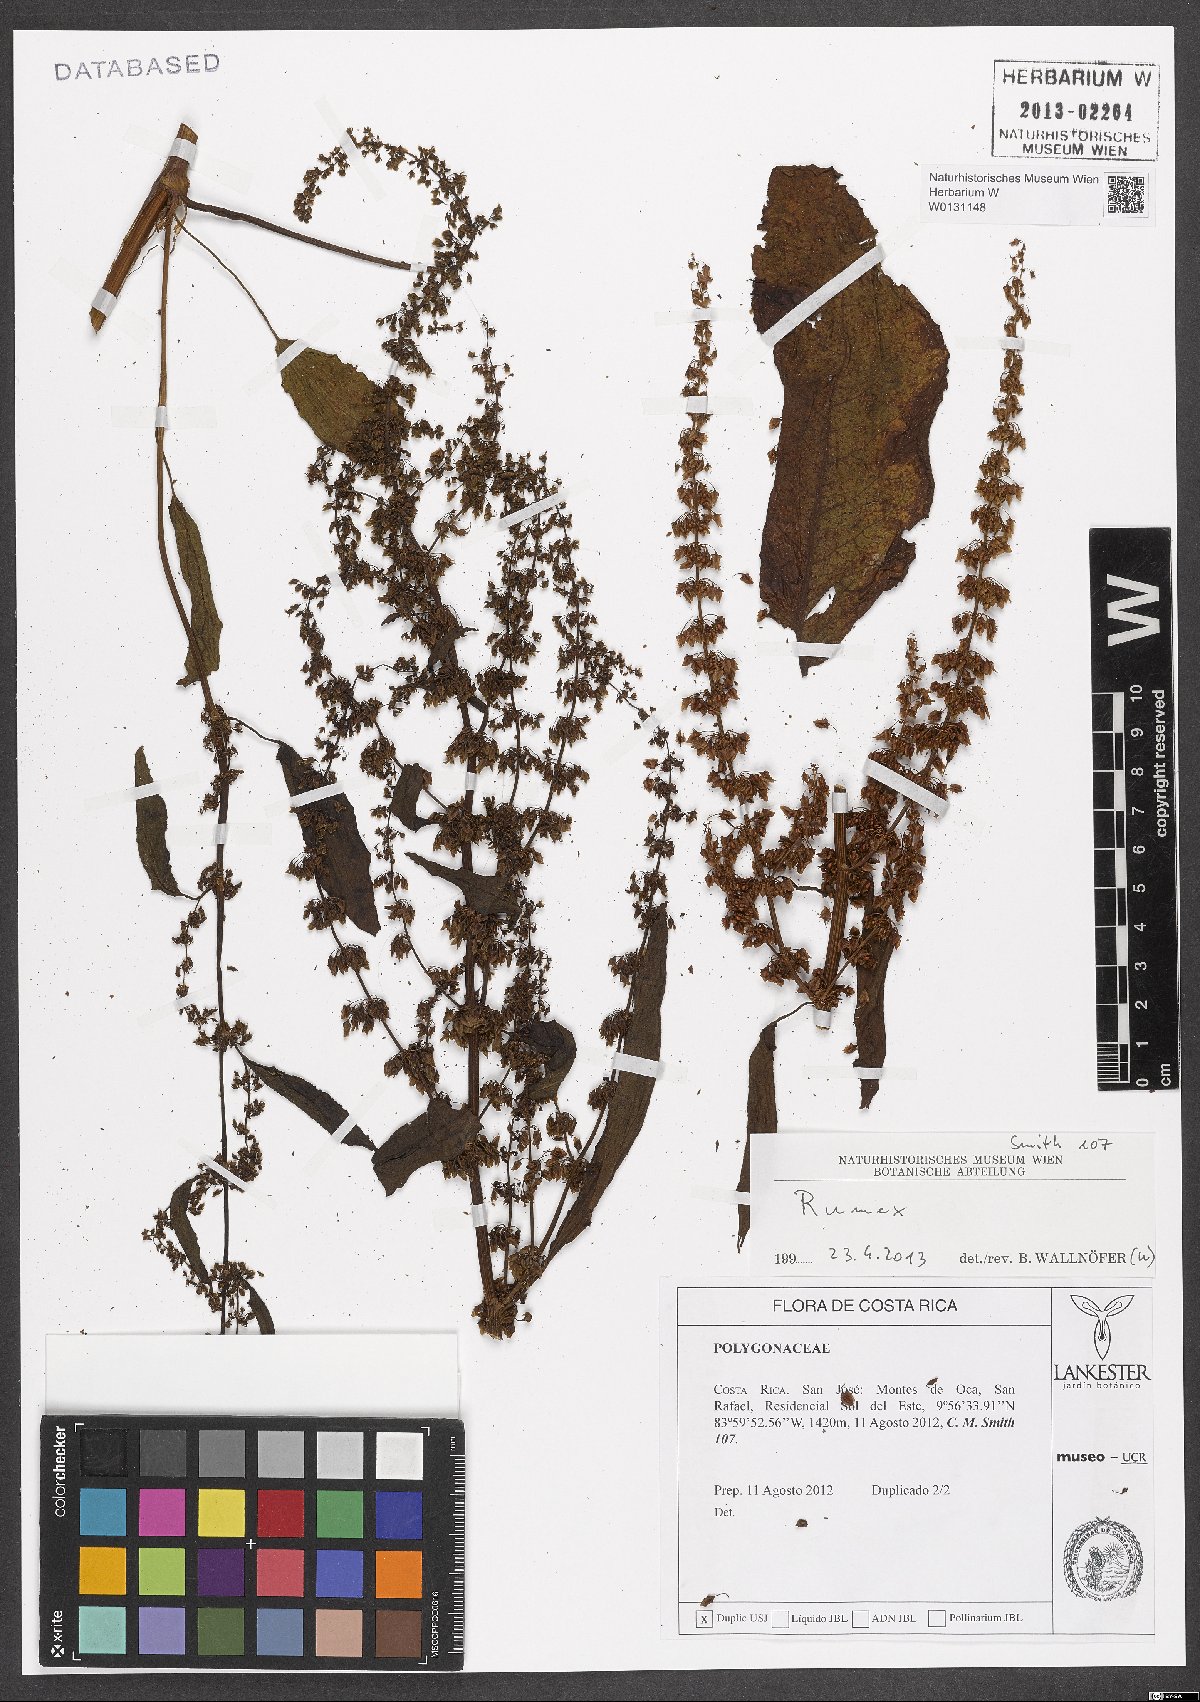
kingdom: Plantae
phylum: Tracheophyta
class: Magnoliopsida
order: Caryophyllales
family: Polygonaceae
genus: Rumex
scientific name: Rumex
